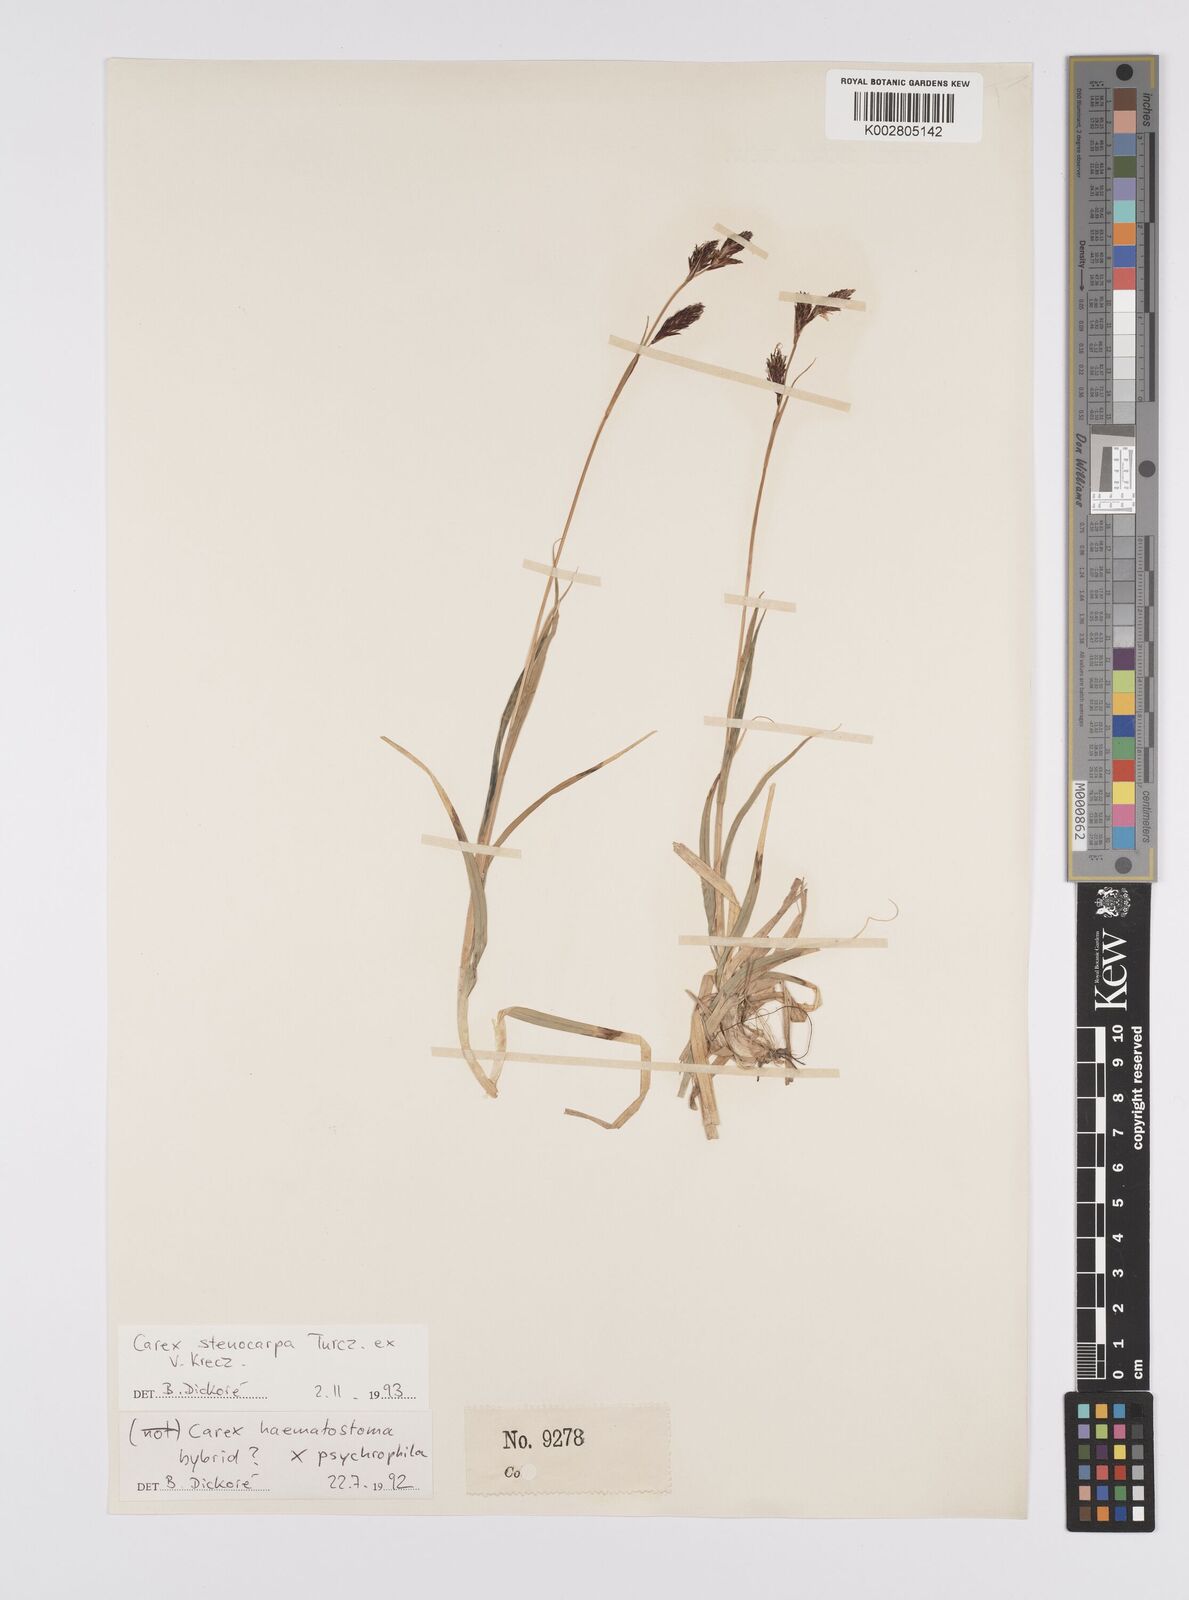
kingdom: Plantae
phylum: Tracheophyta
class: Liliopsida
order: Poales
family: Cyperaceae
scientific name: Cyperaceae
